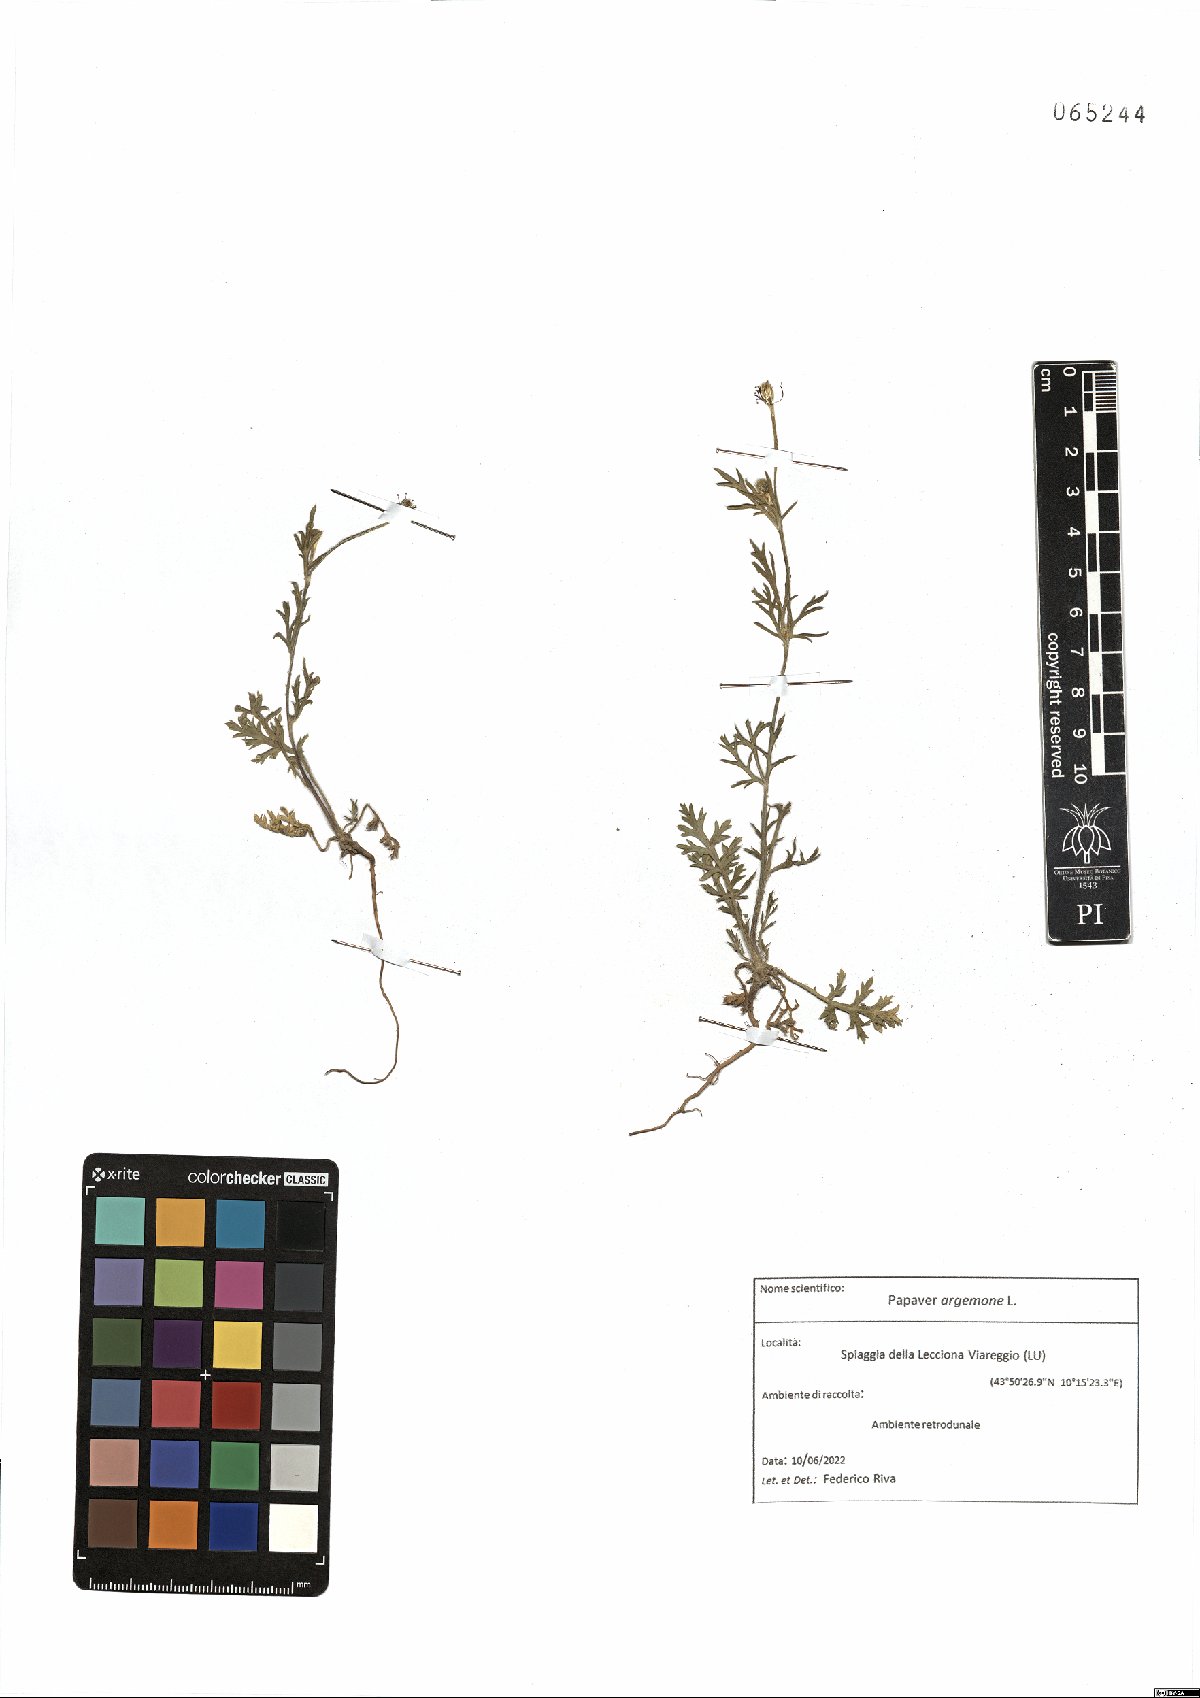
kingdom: Plantae
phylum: Tracheophyta
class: Magnoliopsida
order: Ranunculales
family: Papaveraceae
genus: Roemeria
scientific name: Roemeria argemone
